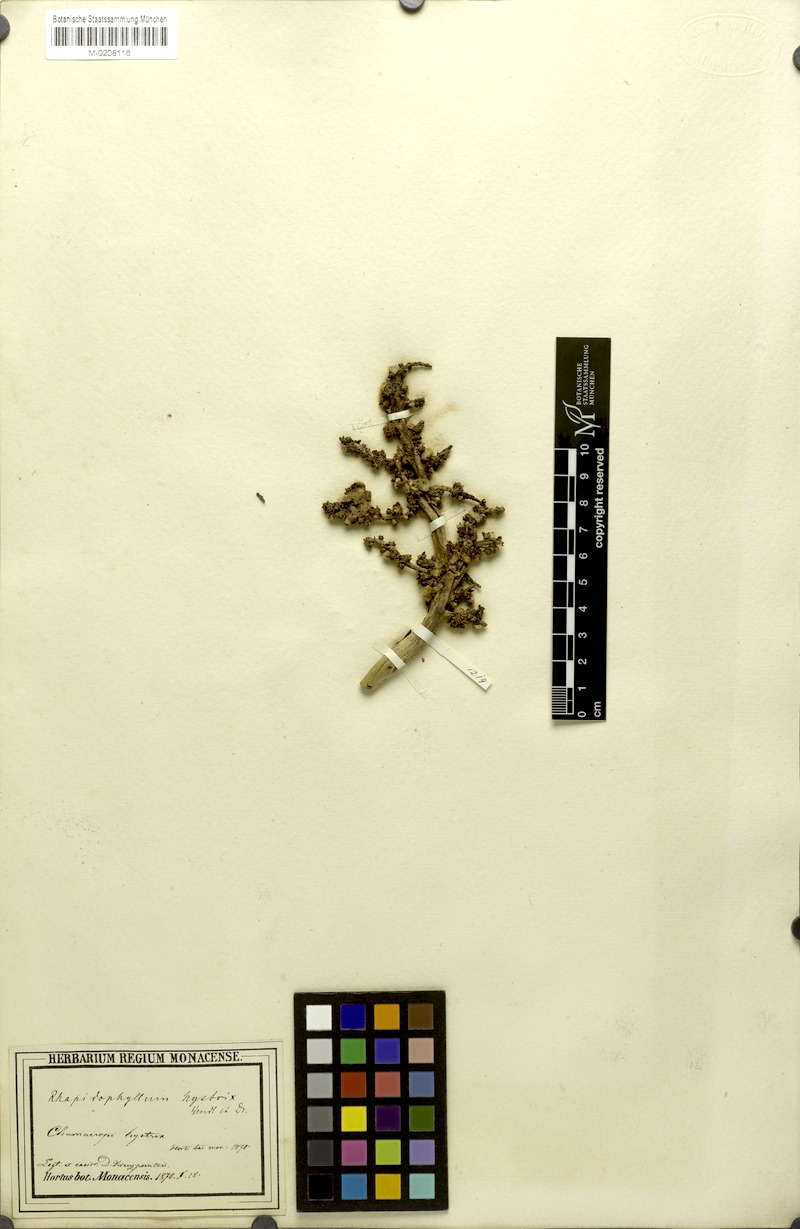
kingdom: Plantae
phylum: Tracheophyta
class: Liliopsida
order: Arecales
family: Arecaceae
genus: Rhapidophyllum
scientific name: Rhapidophyllum hystrix
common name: Porcupine palm
